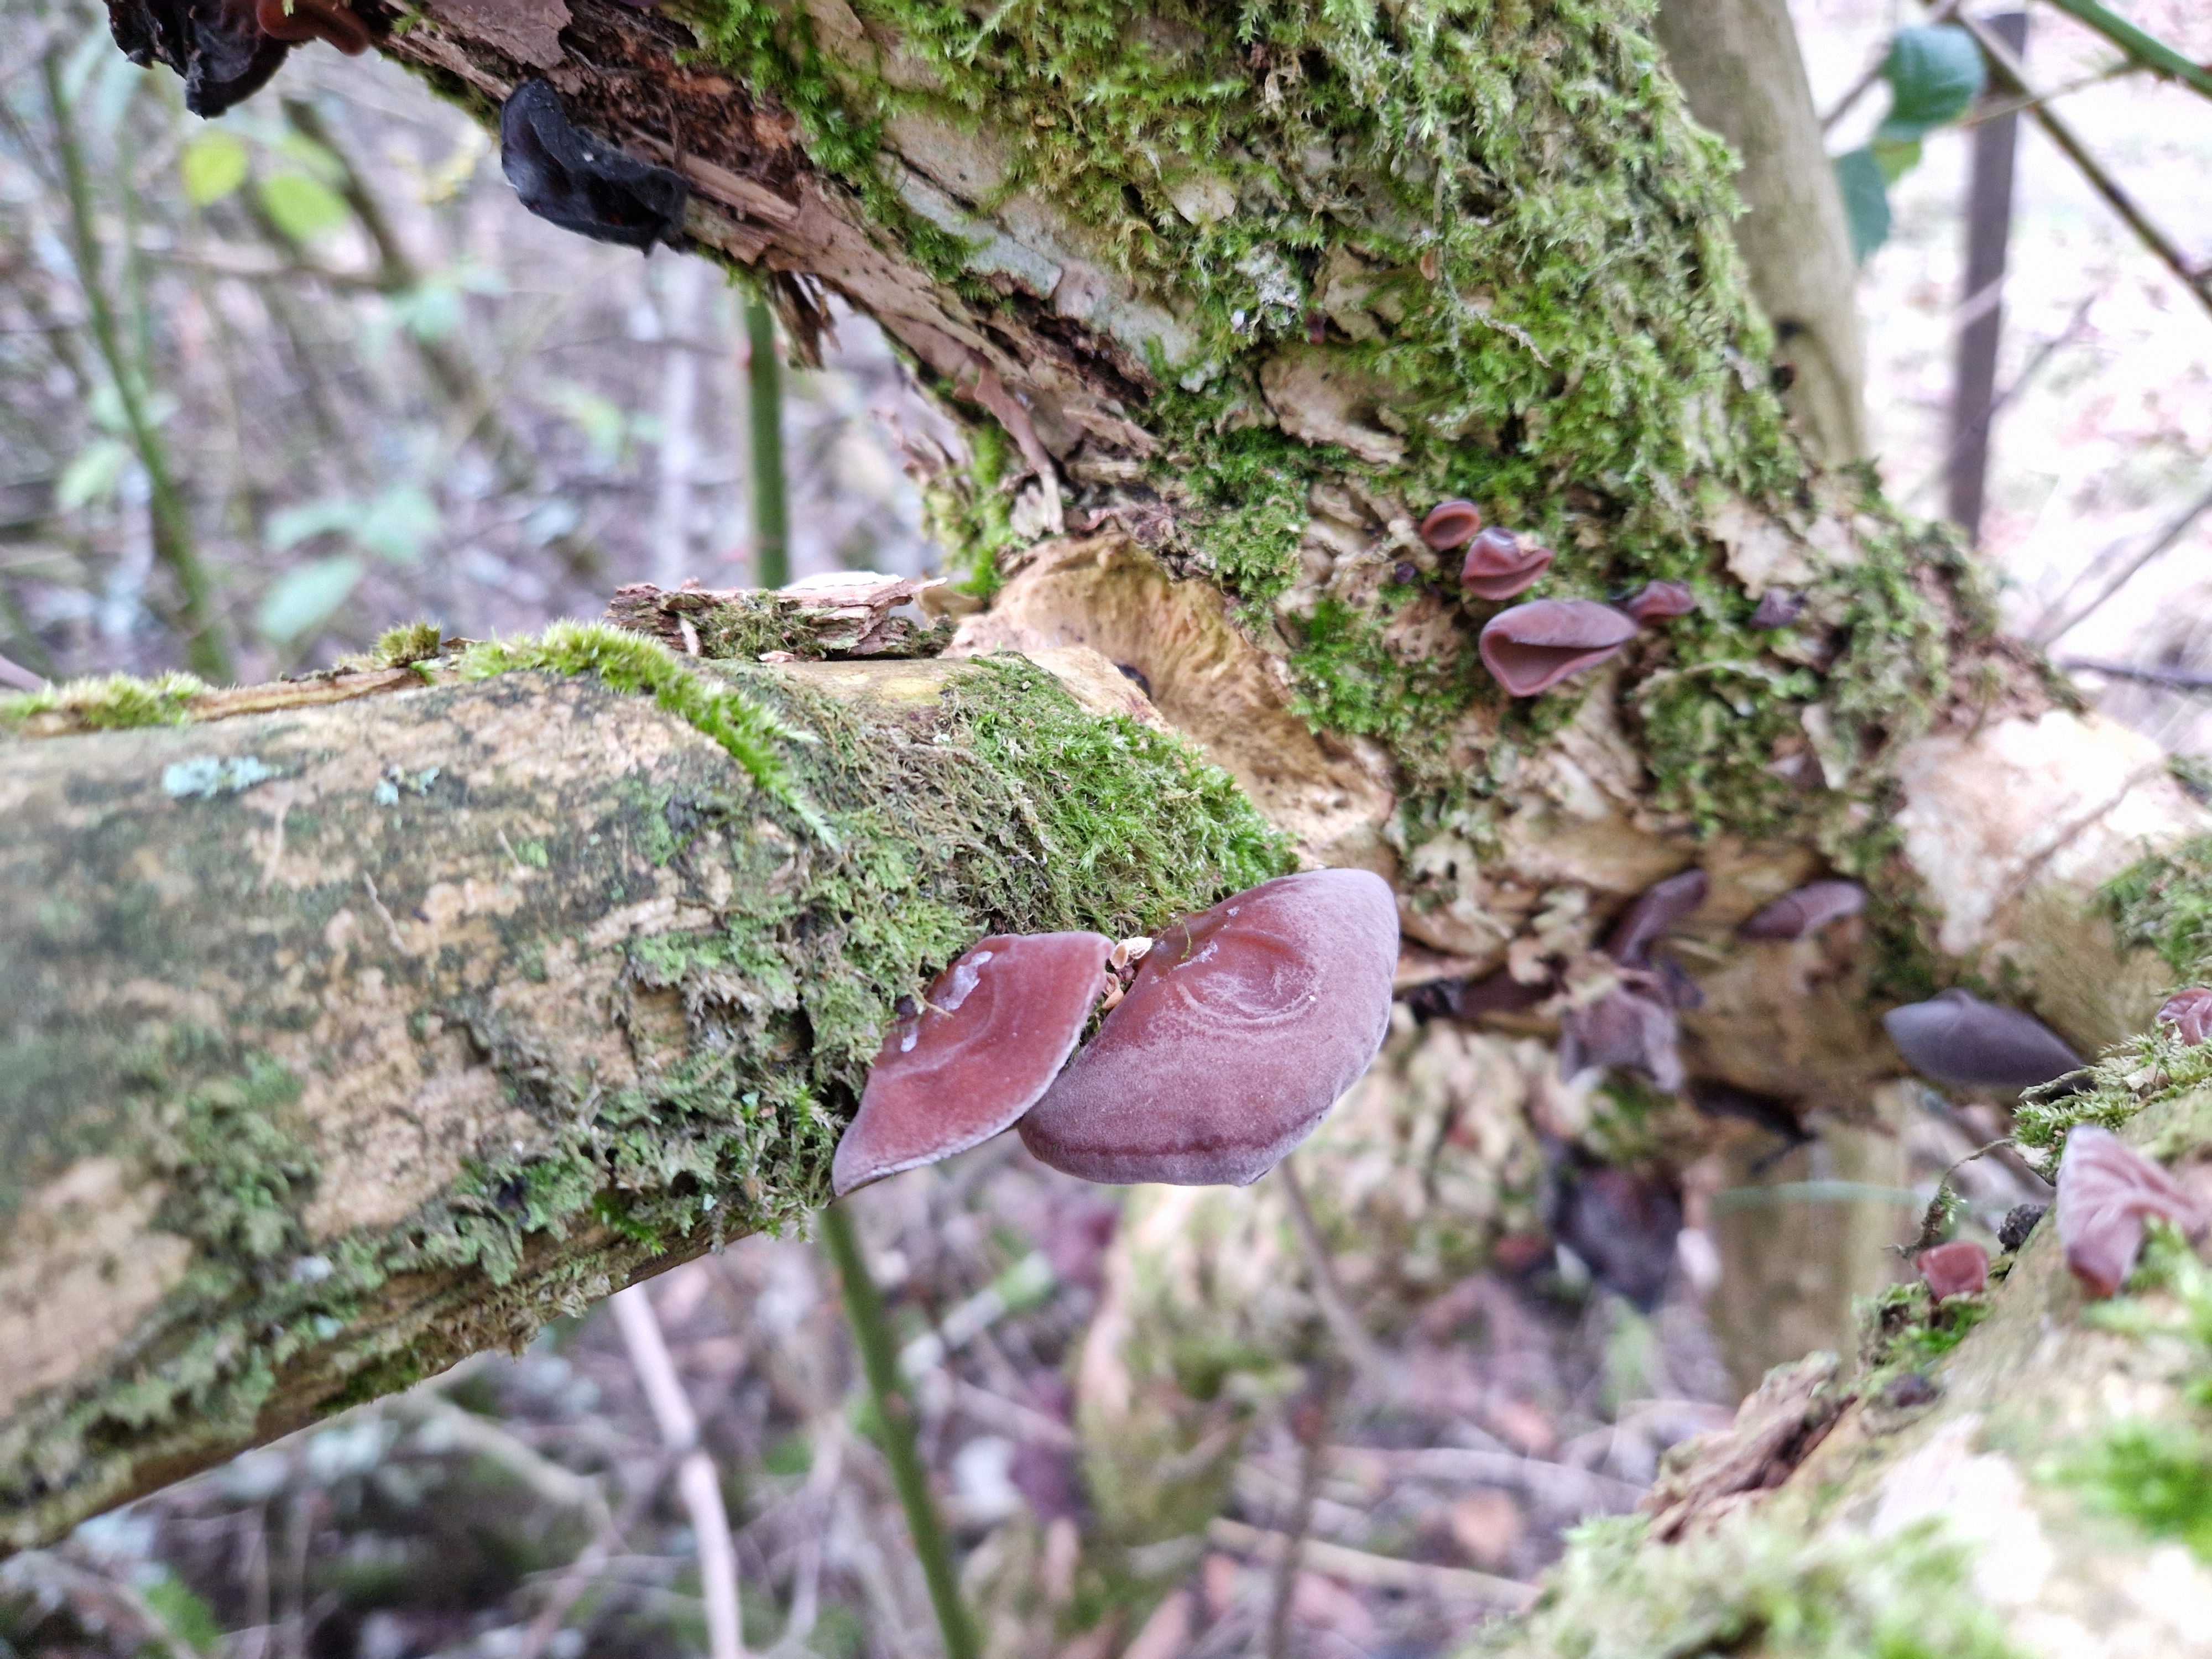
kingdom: Fungi
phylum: Basidiomycota
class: Agaricomycetes
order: Auriculariales
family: Auriculariaceae
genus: Auricularia
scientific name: Auricularia auricula-judae
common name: almindelig judasøre
